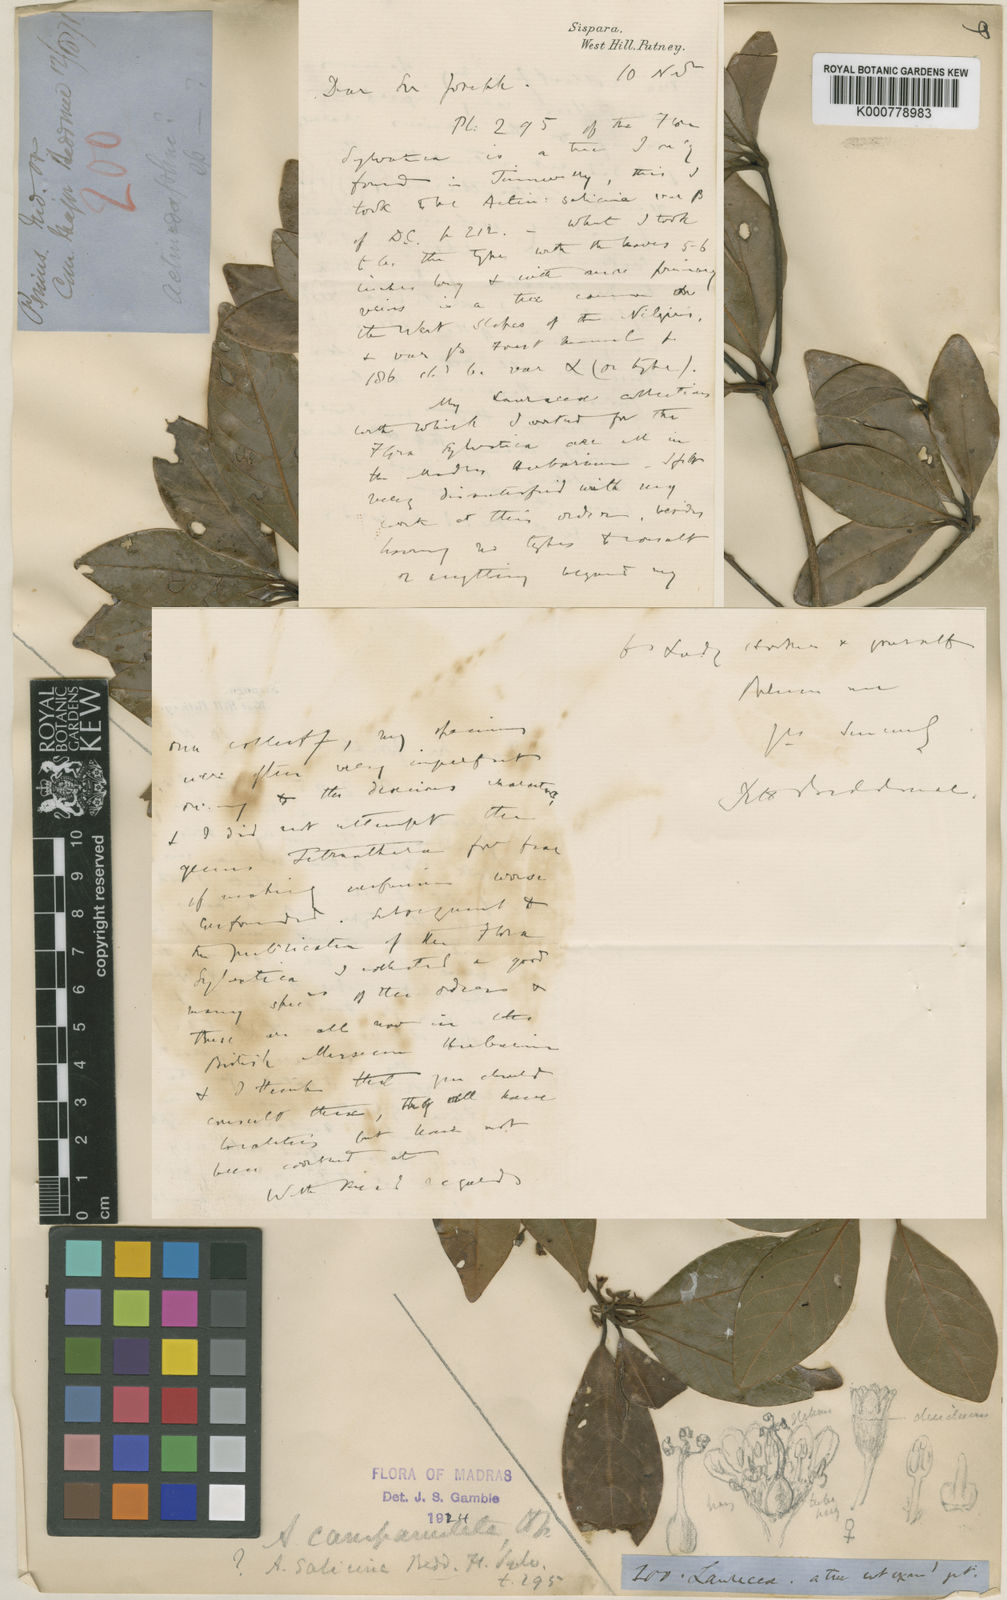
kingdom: Plantae
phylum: Tracheophyta
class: Magnoliopsida
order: Laurales
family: Lauraceae
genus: Actinodaphne
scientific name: Actinodaphne campanulata
